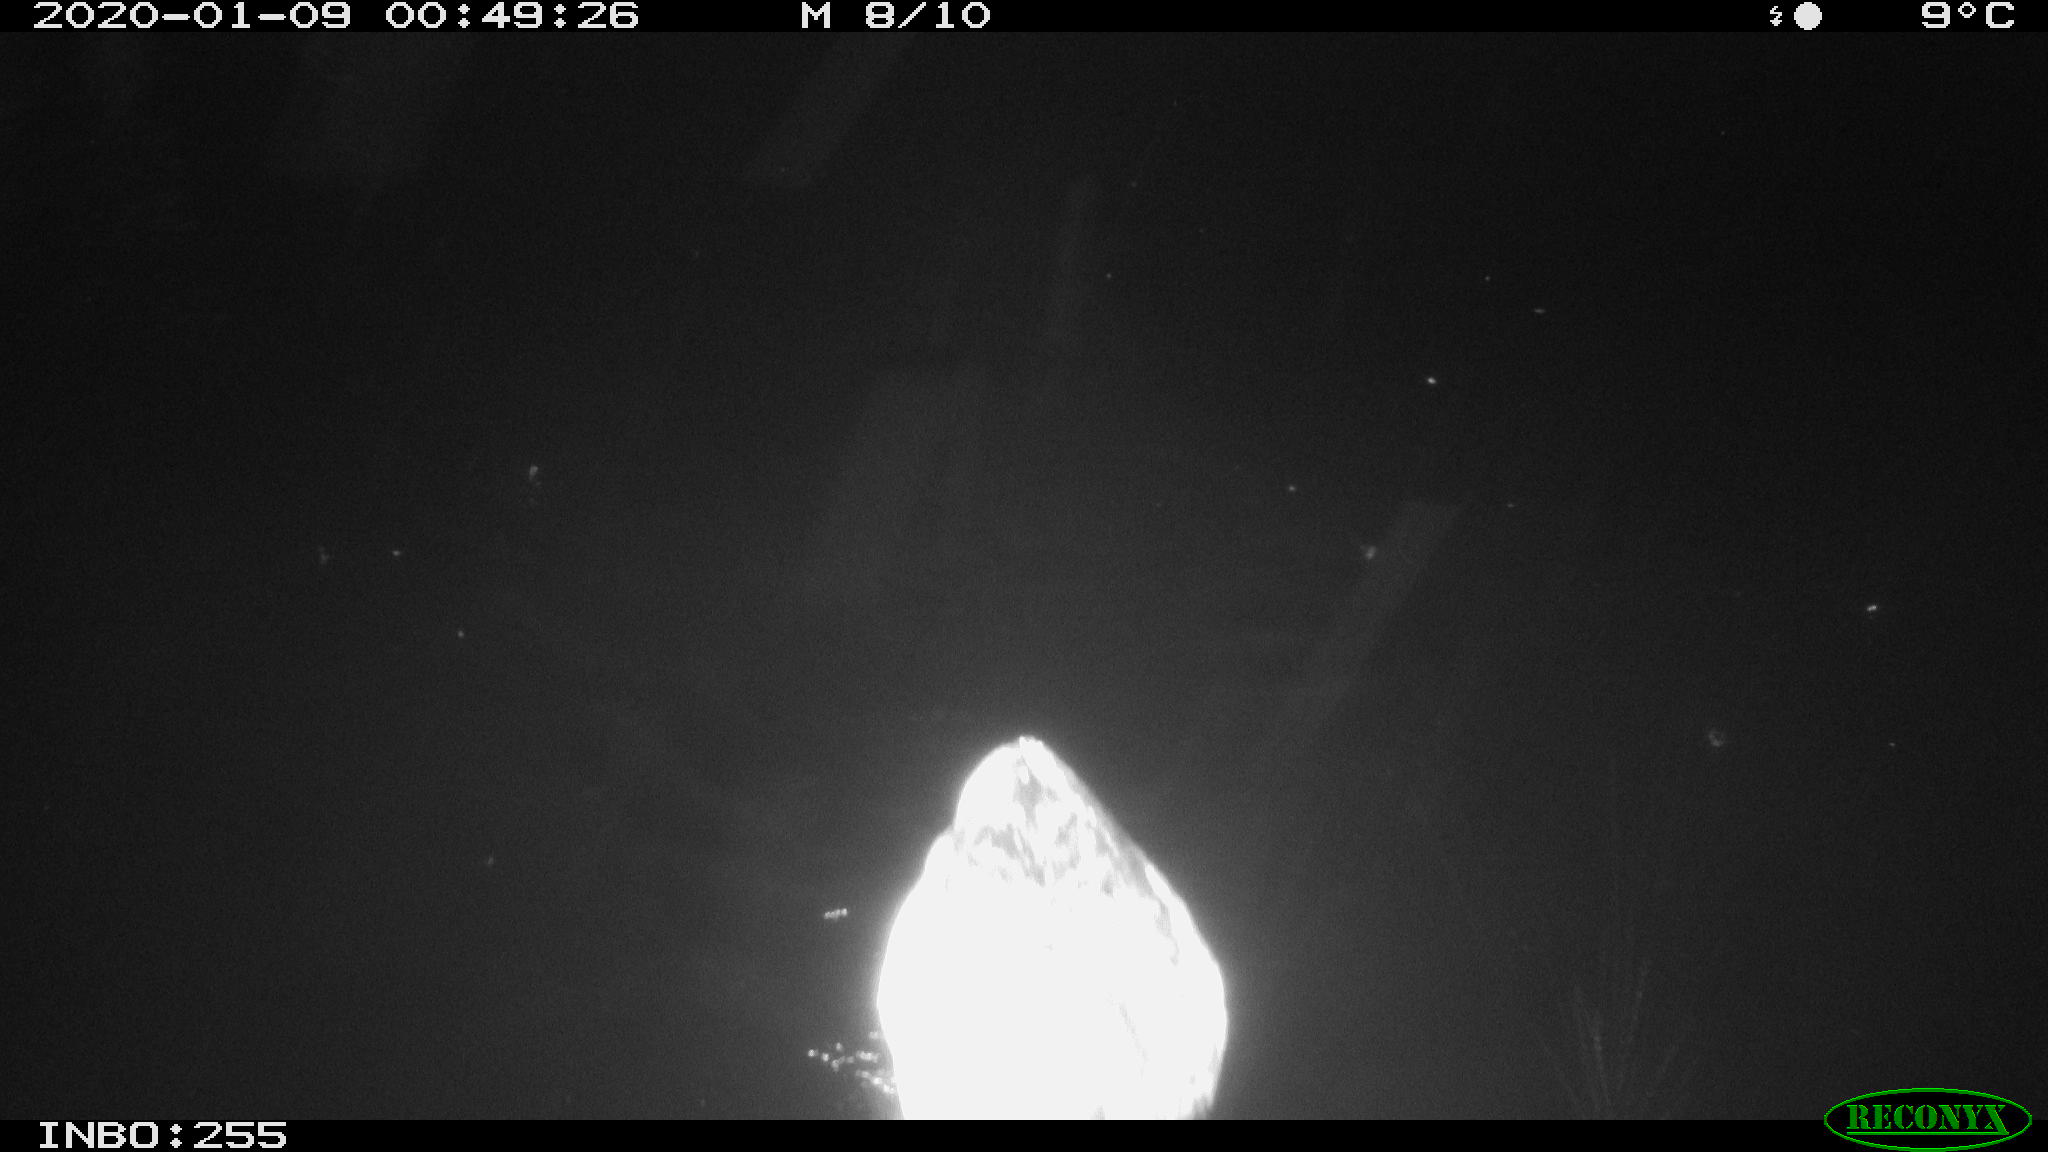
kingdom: Animalia
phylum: Chordata
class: Aves
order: Anseriformes
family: Anatidae
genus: Anas
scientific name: Anas platyrhynchos
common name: Mallard
